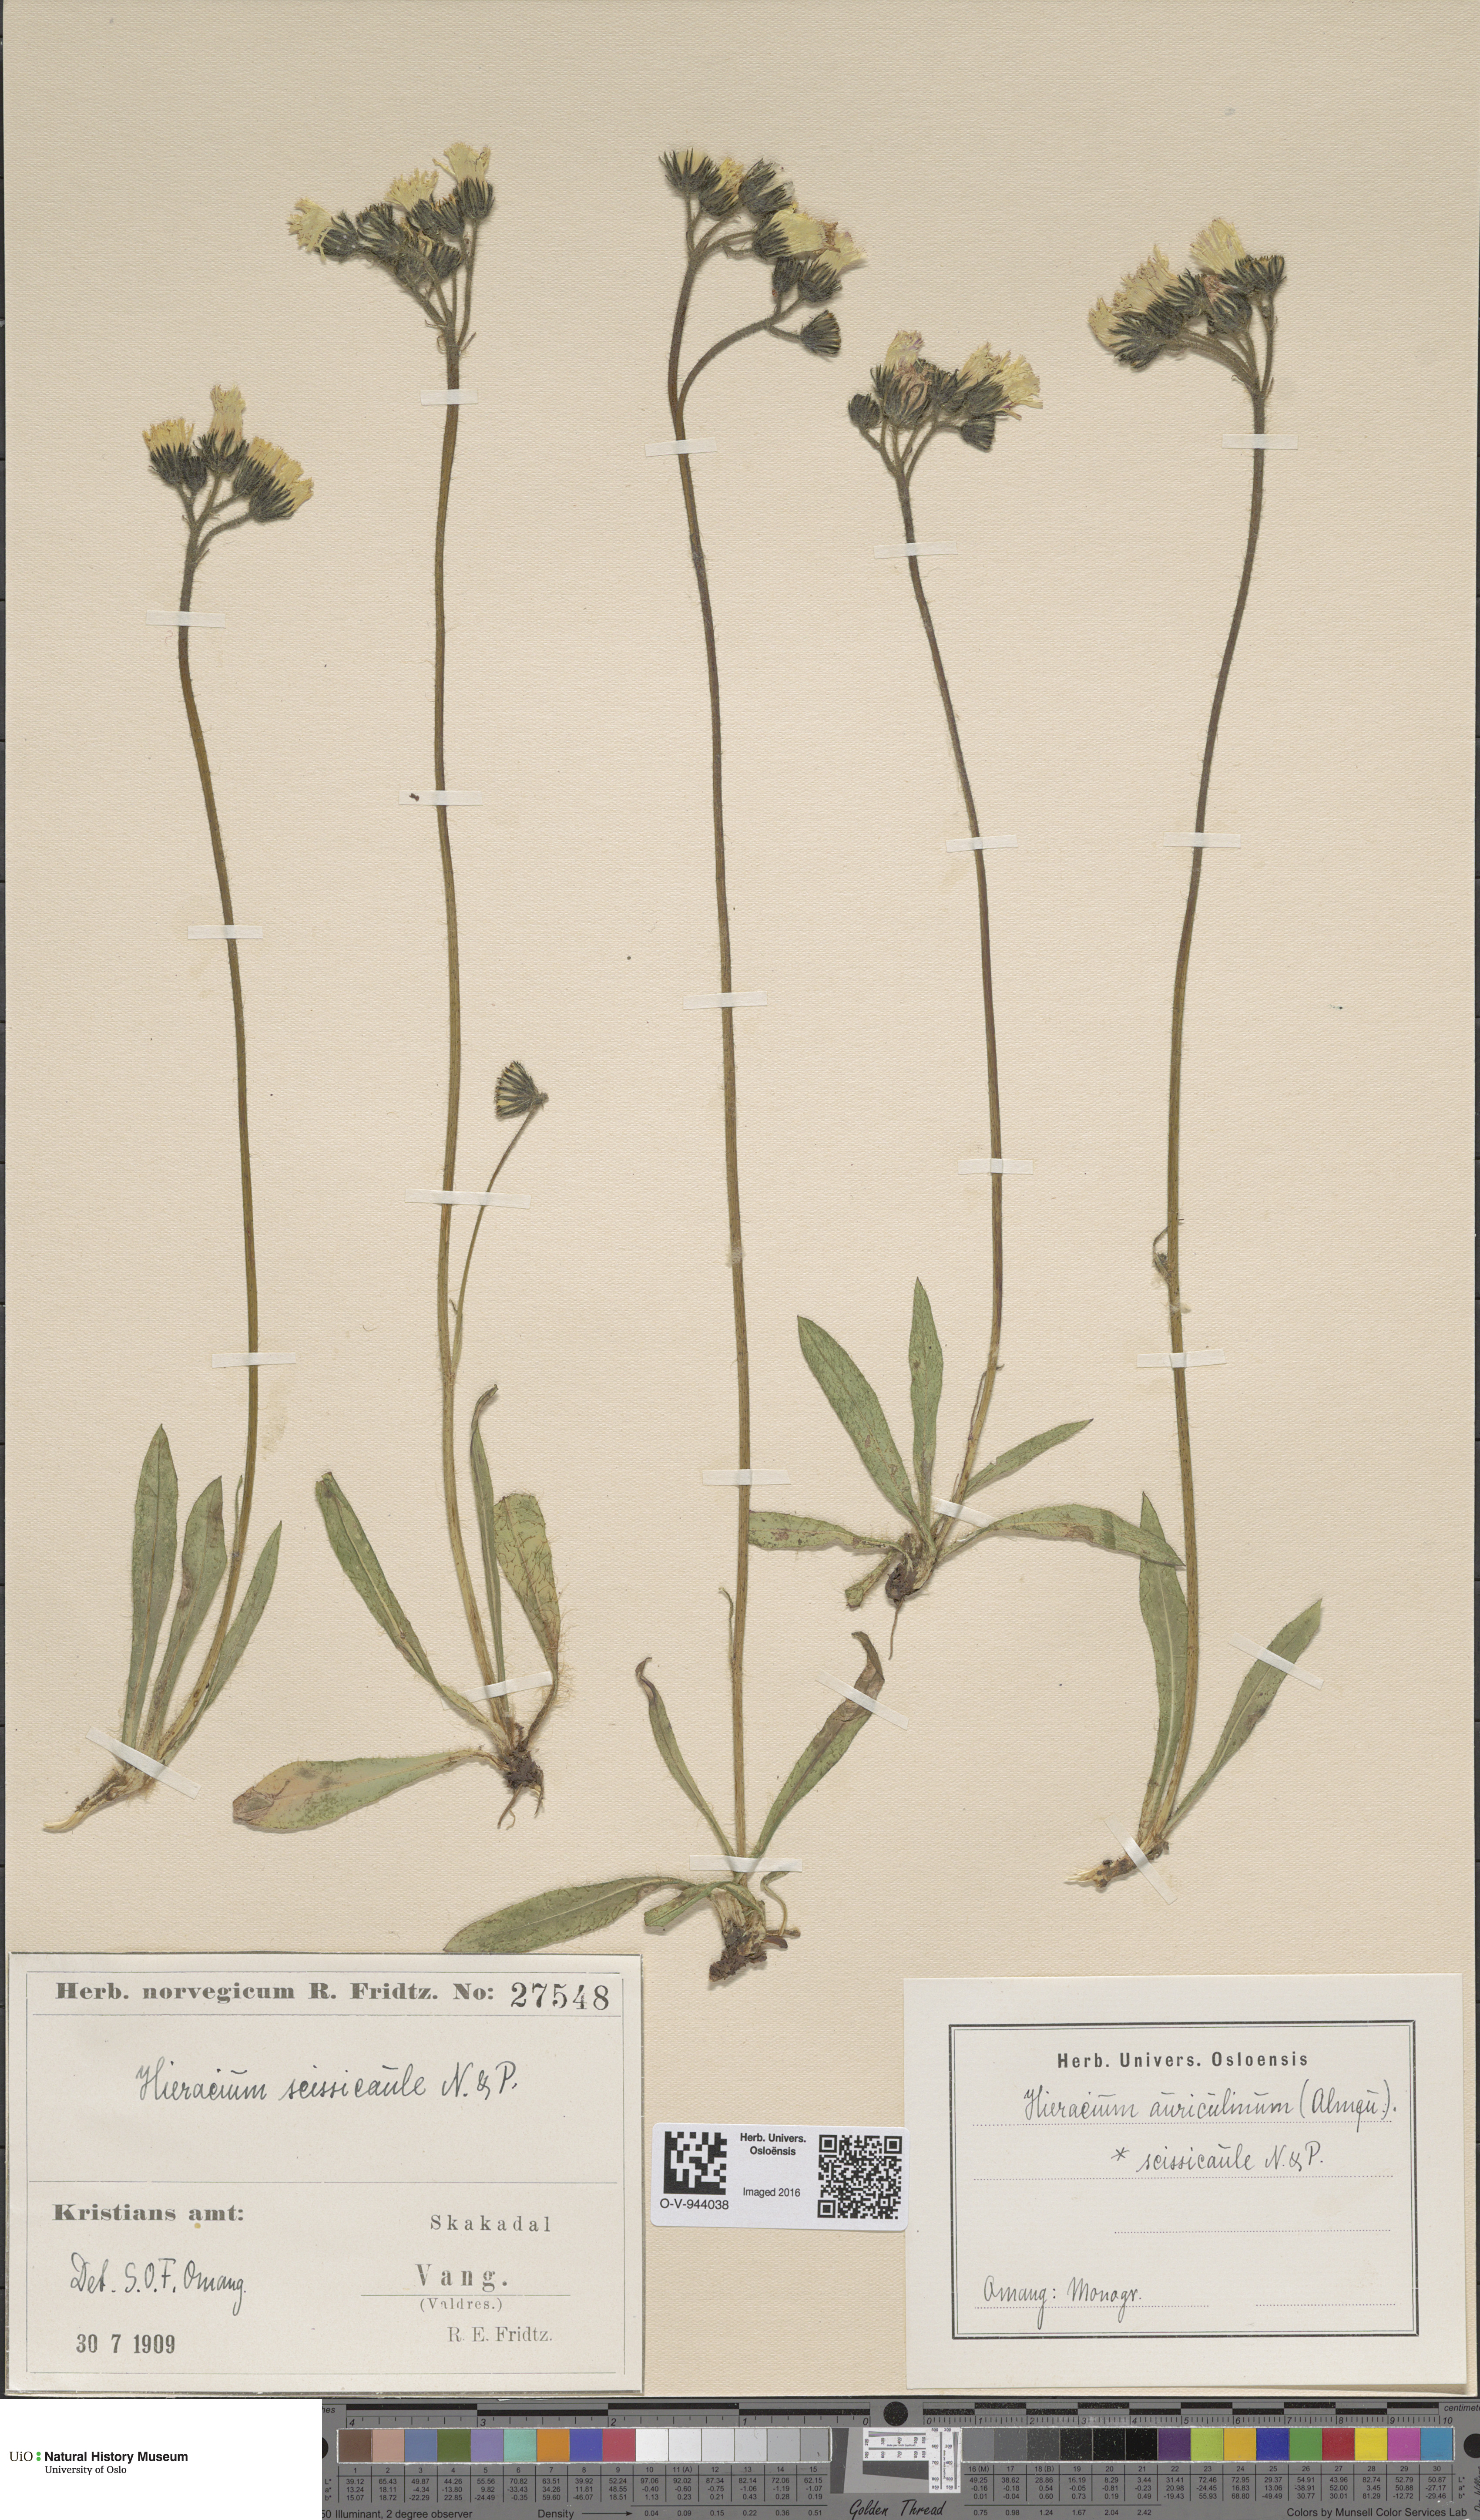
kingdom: Plantae
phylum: Tracheophyta
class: Magnoliopsida
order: Asterales
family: Asteraceae
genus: Pilosella
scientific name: Pilosella dubia
